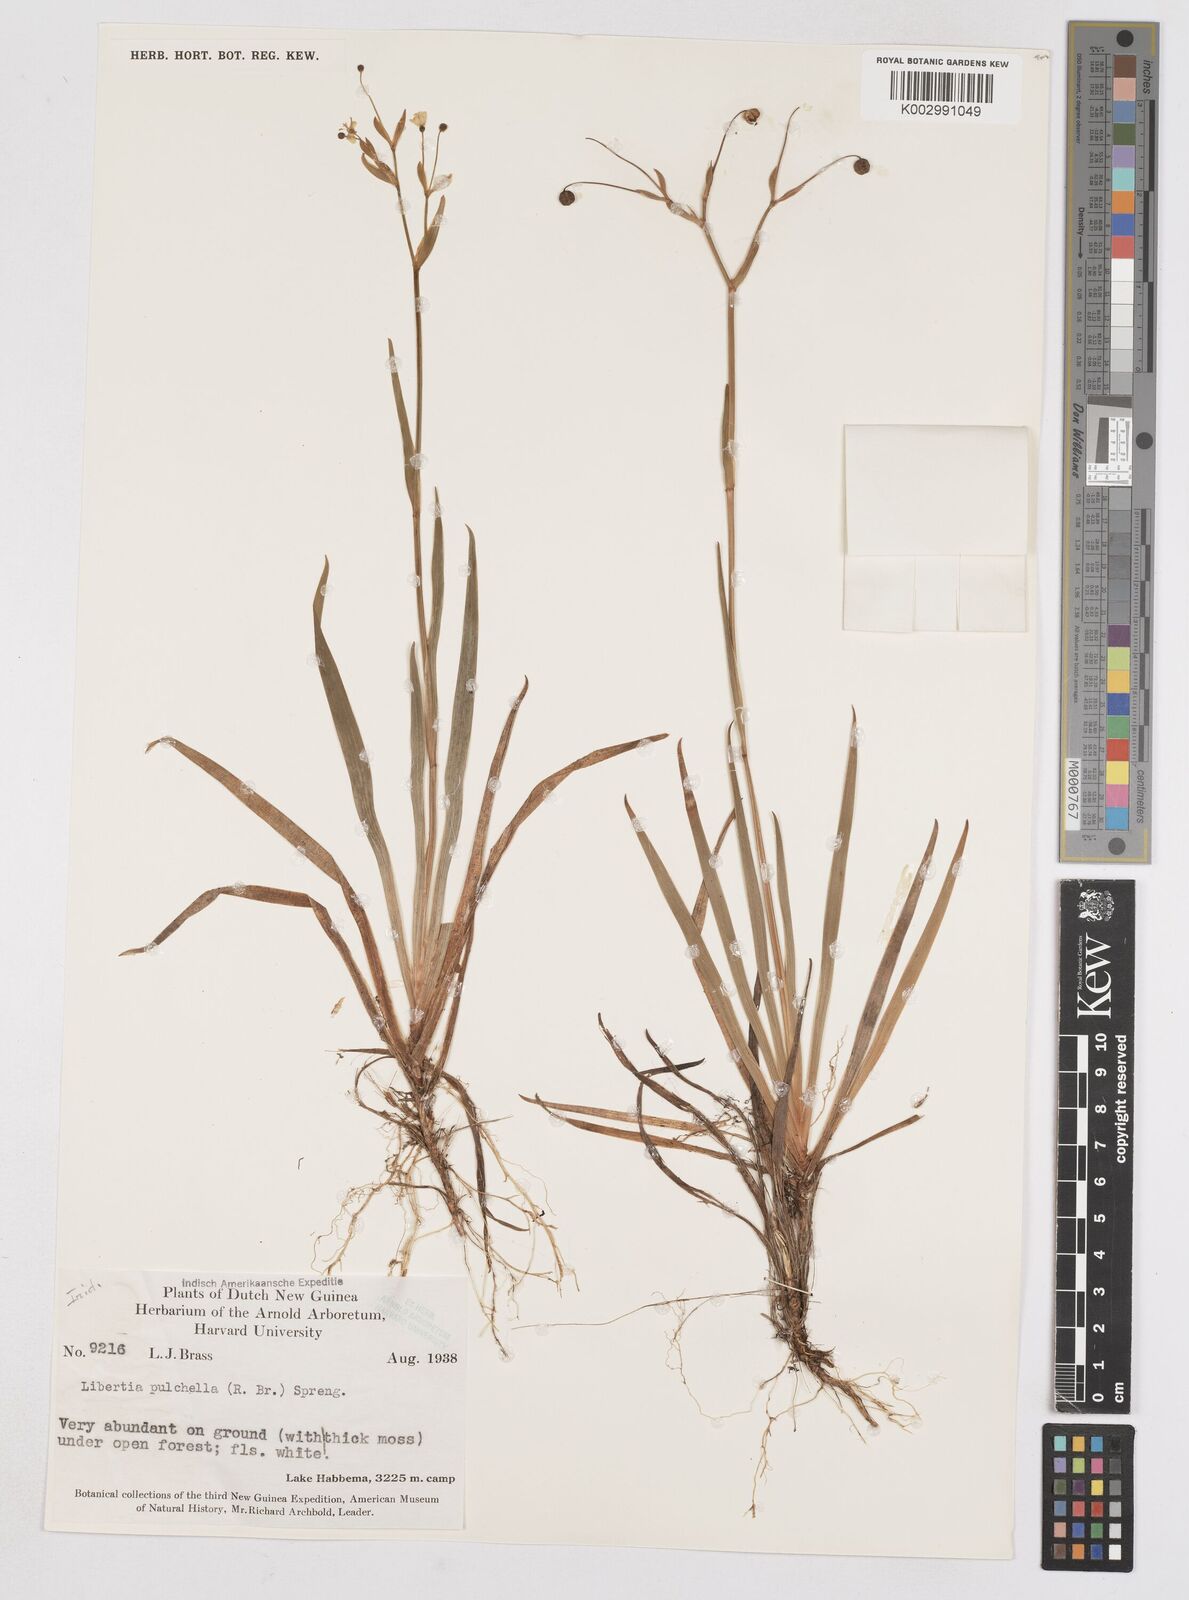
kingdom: Plantae
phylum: Tracheophyta
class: Liliopsida
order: Asparagales
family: Iridaceae
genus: Libertia
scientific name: Libertia pulchella
